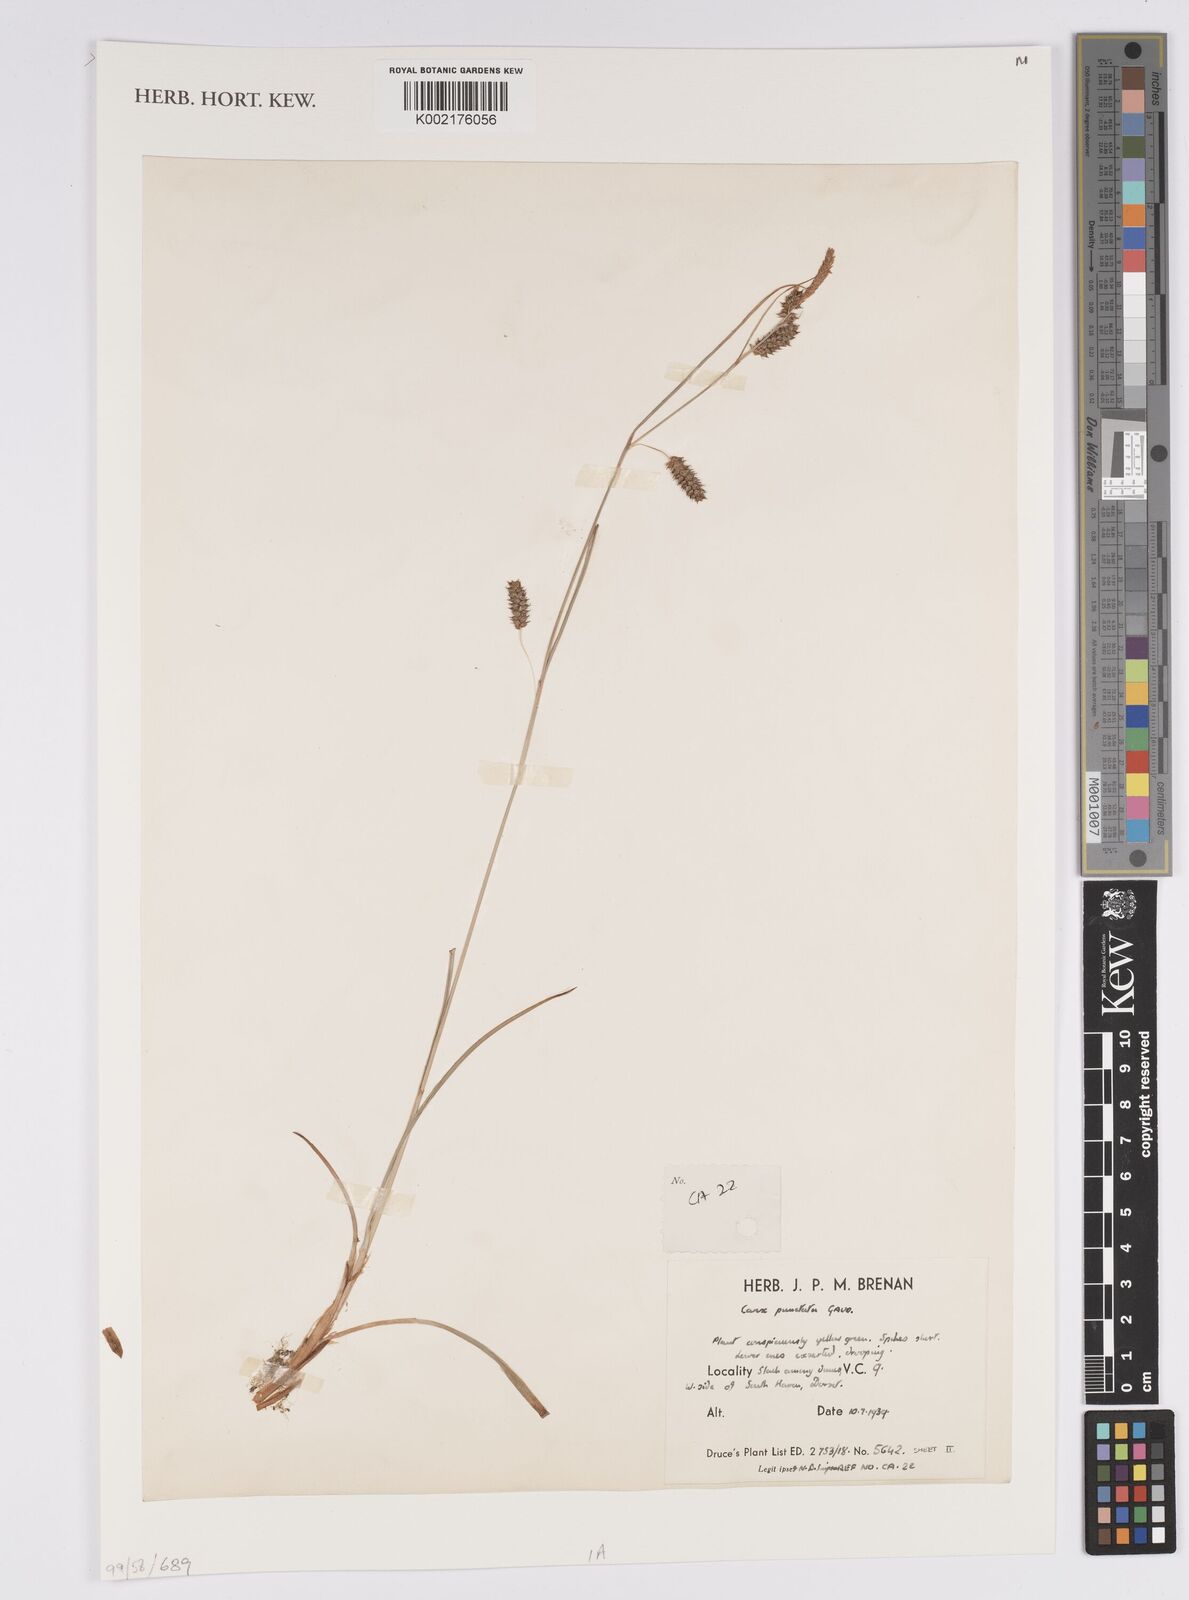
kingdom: Plantae
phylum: Tracheophyta
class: Liliopsida
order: Poales
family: Cyperaceae
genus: Carex
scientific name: Carex punctata
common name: Dotted sedge
